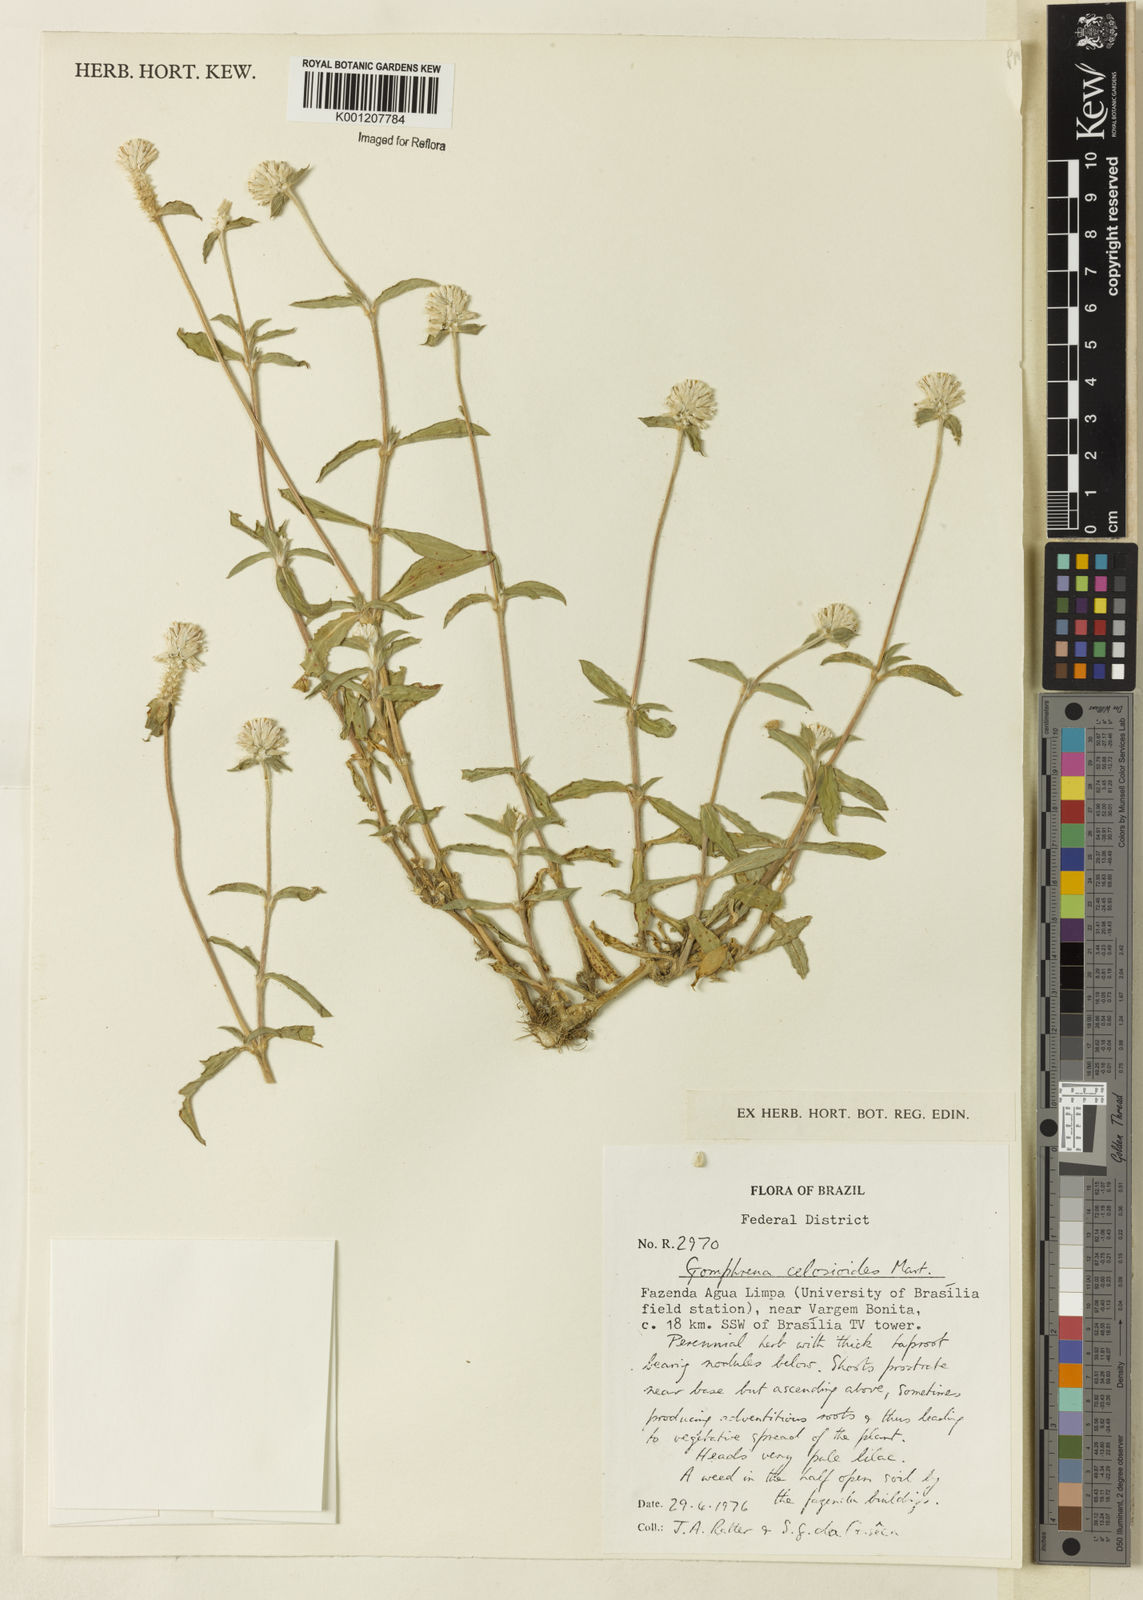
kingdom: Plantae
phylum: Tracheophyta
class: Magnoliopsida
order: Caryophyllales
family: Amaranthaceae
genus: Gomphrena
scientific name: Gomphrena celosioides
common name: Gomphrena-weed
